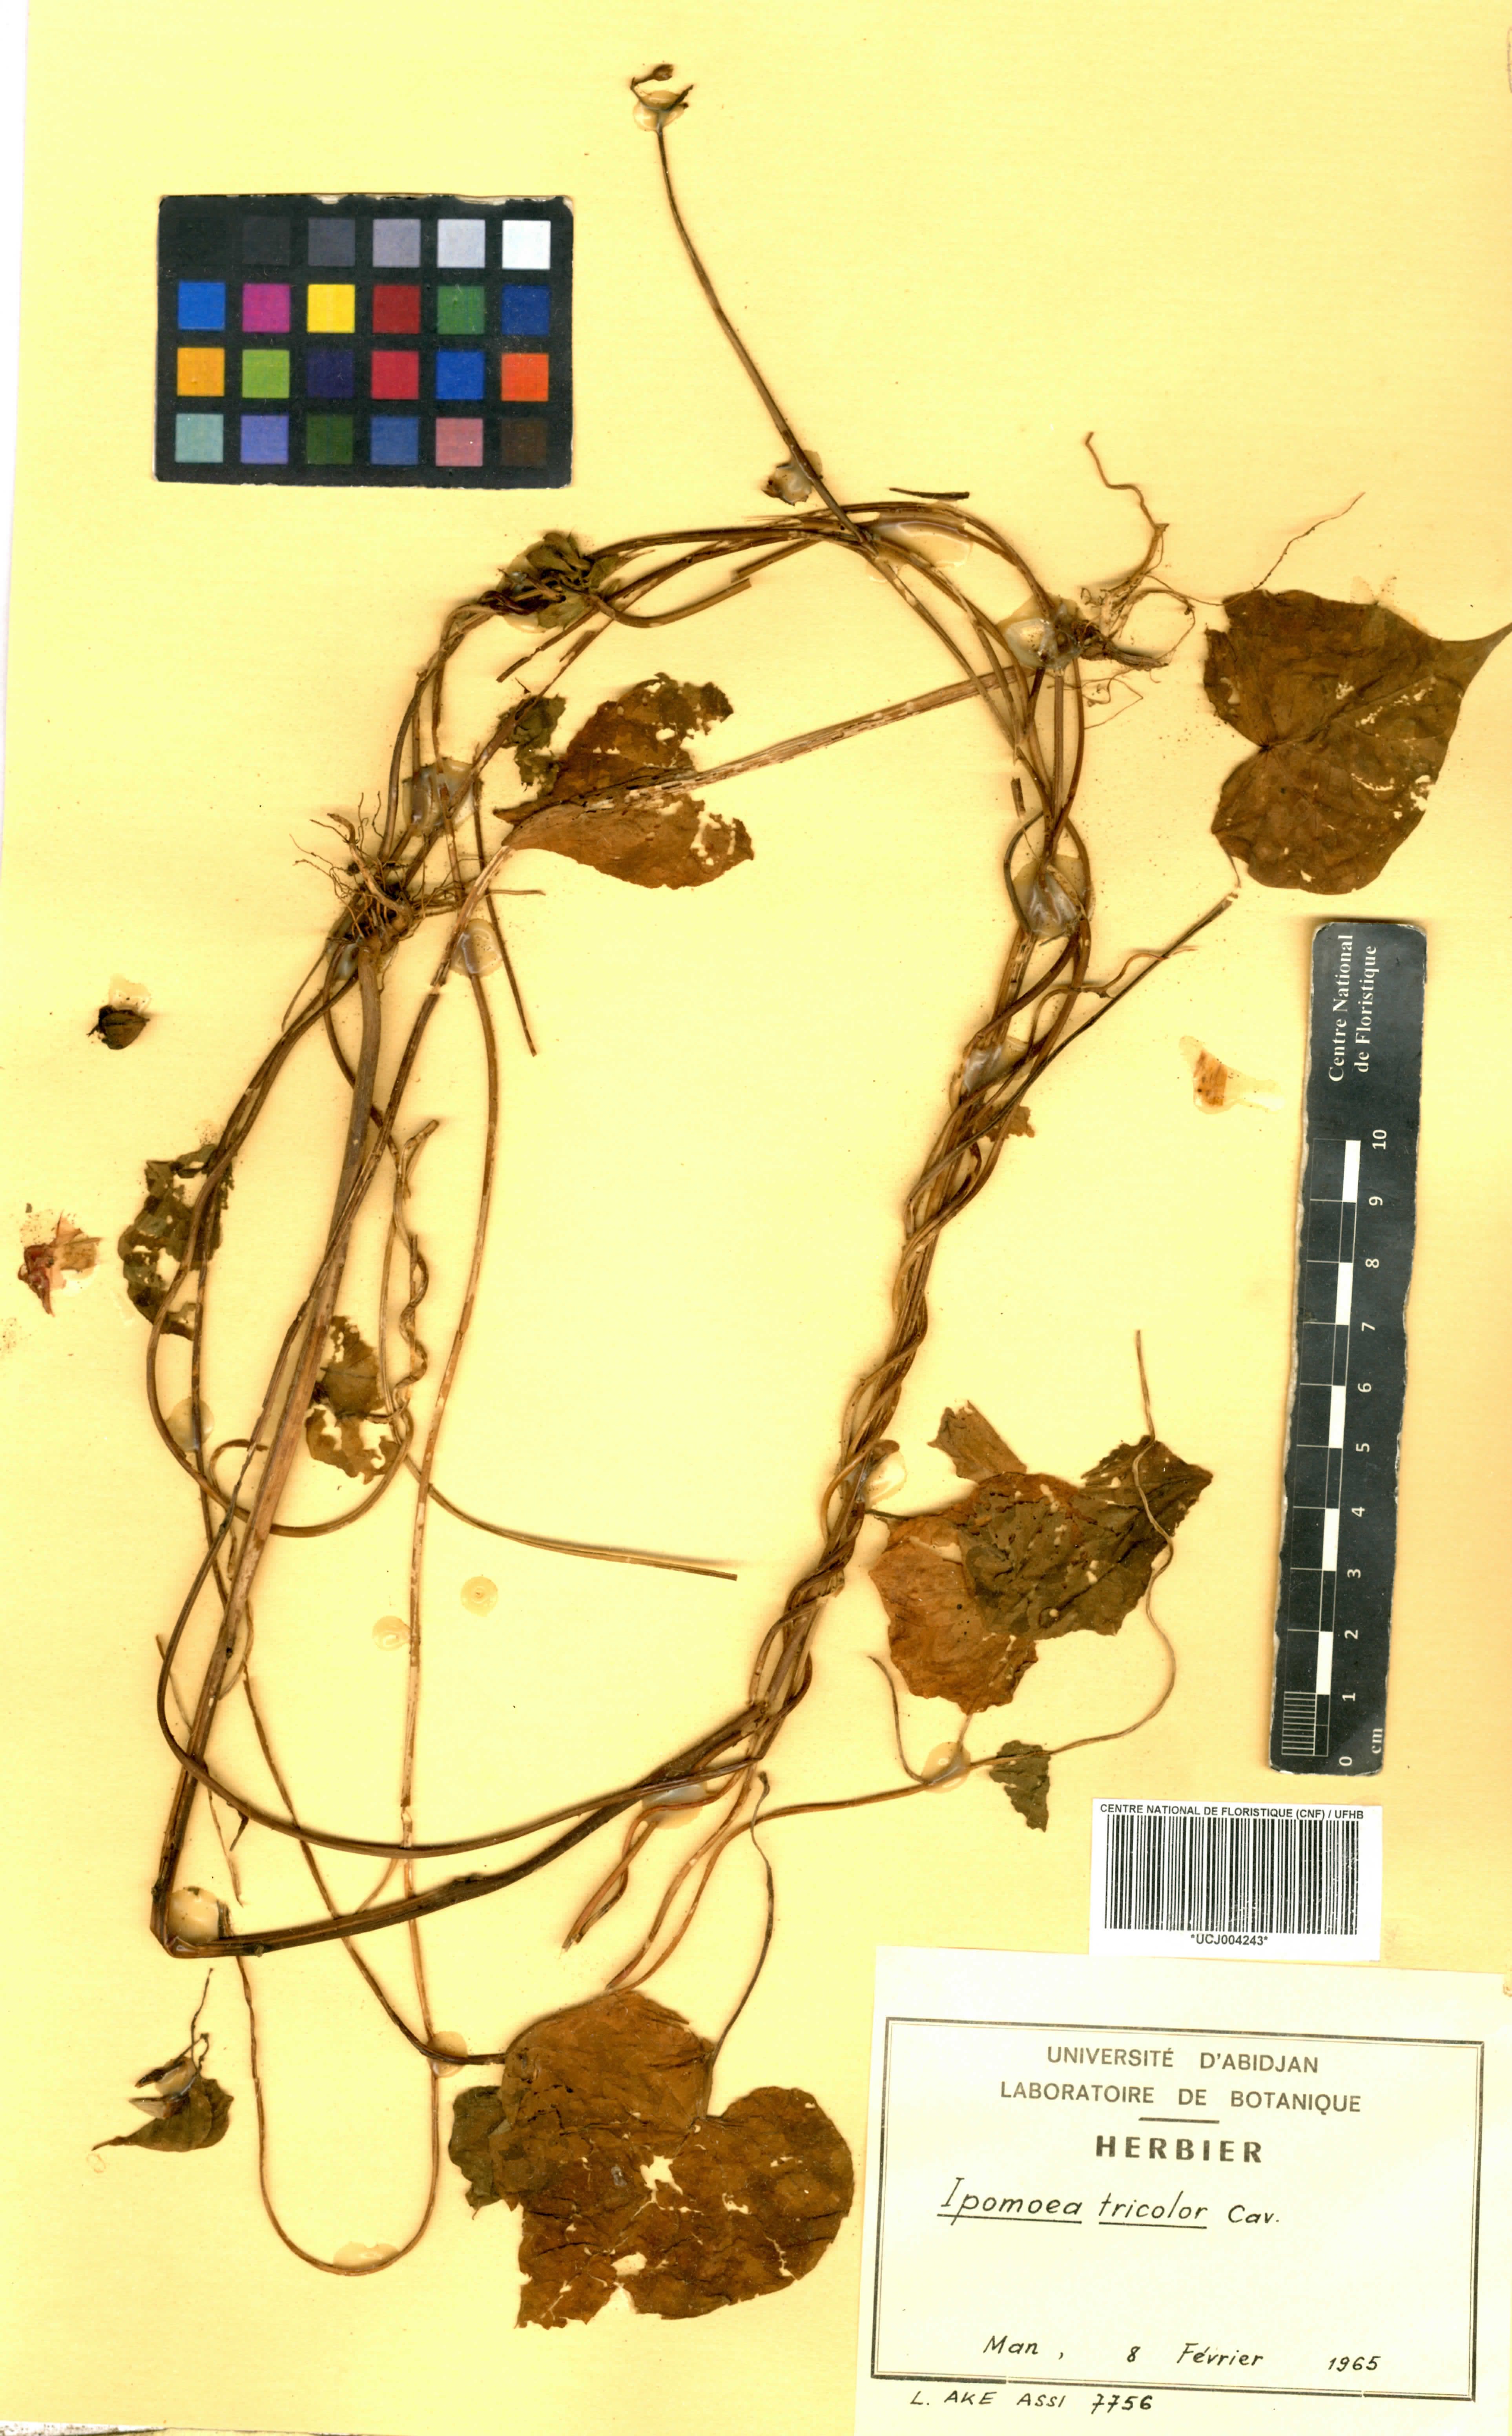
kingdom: Plantae
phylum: Tracheophyta
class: Magnoliopsida
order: Solanales
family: Convolvulaceae
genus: Ipomoea
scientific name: Ipomoea tricolor
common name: Morning-glory
